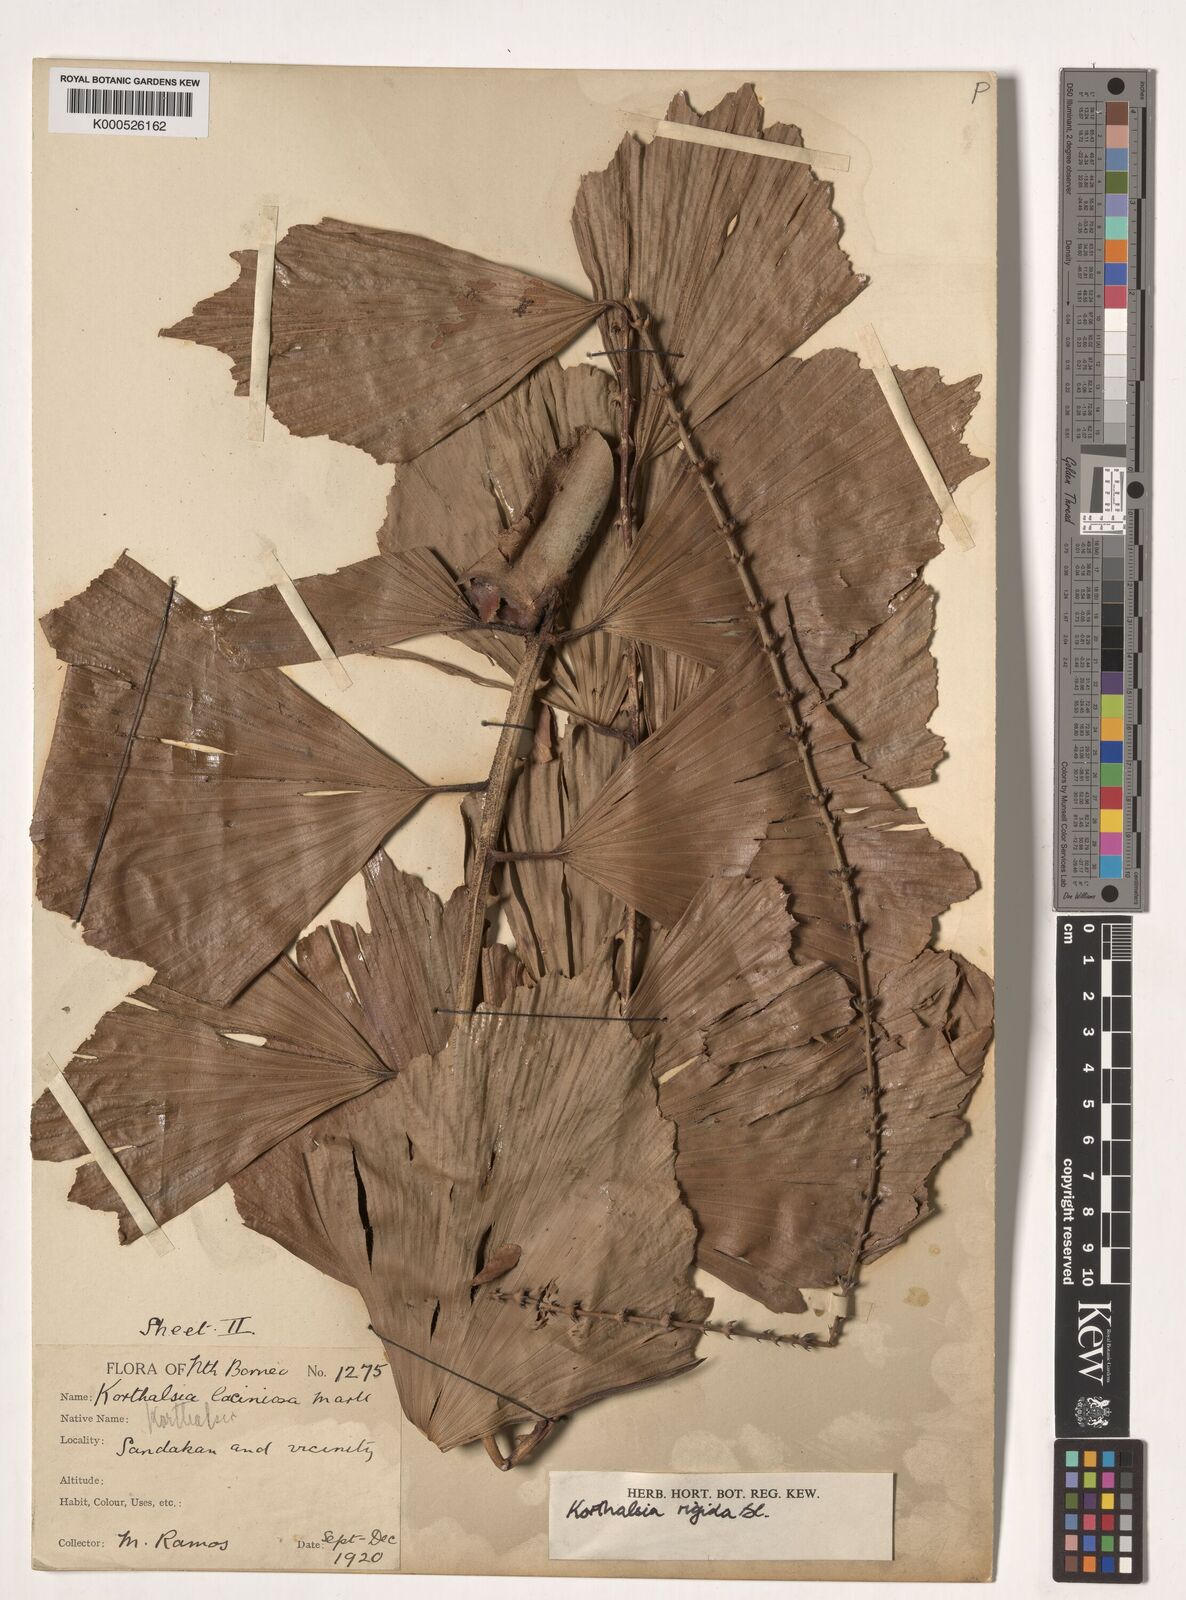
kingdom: Plantae
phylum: Tracheophyta
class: Liliopsida
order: Arecales
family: Arecaceae
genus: Korthalsia
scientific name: Korthalsia rigida
